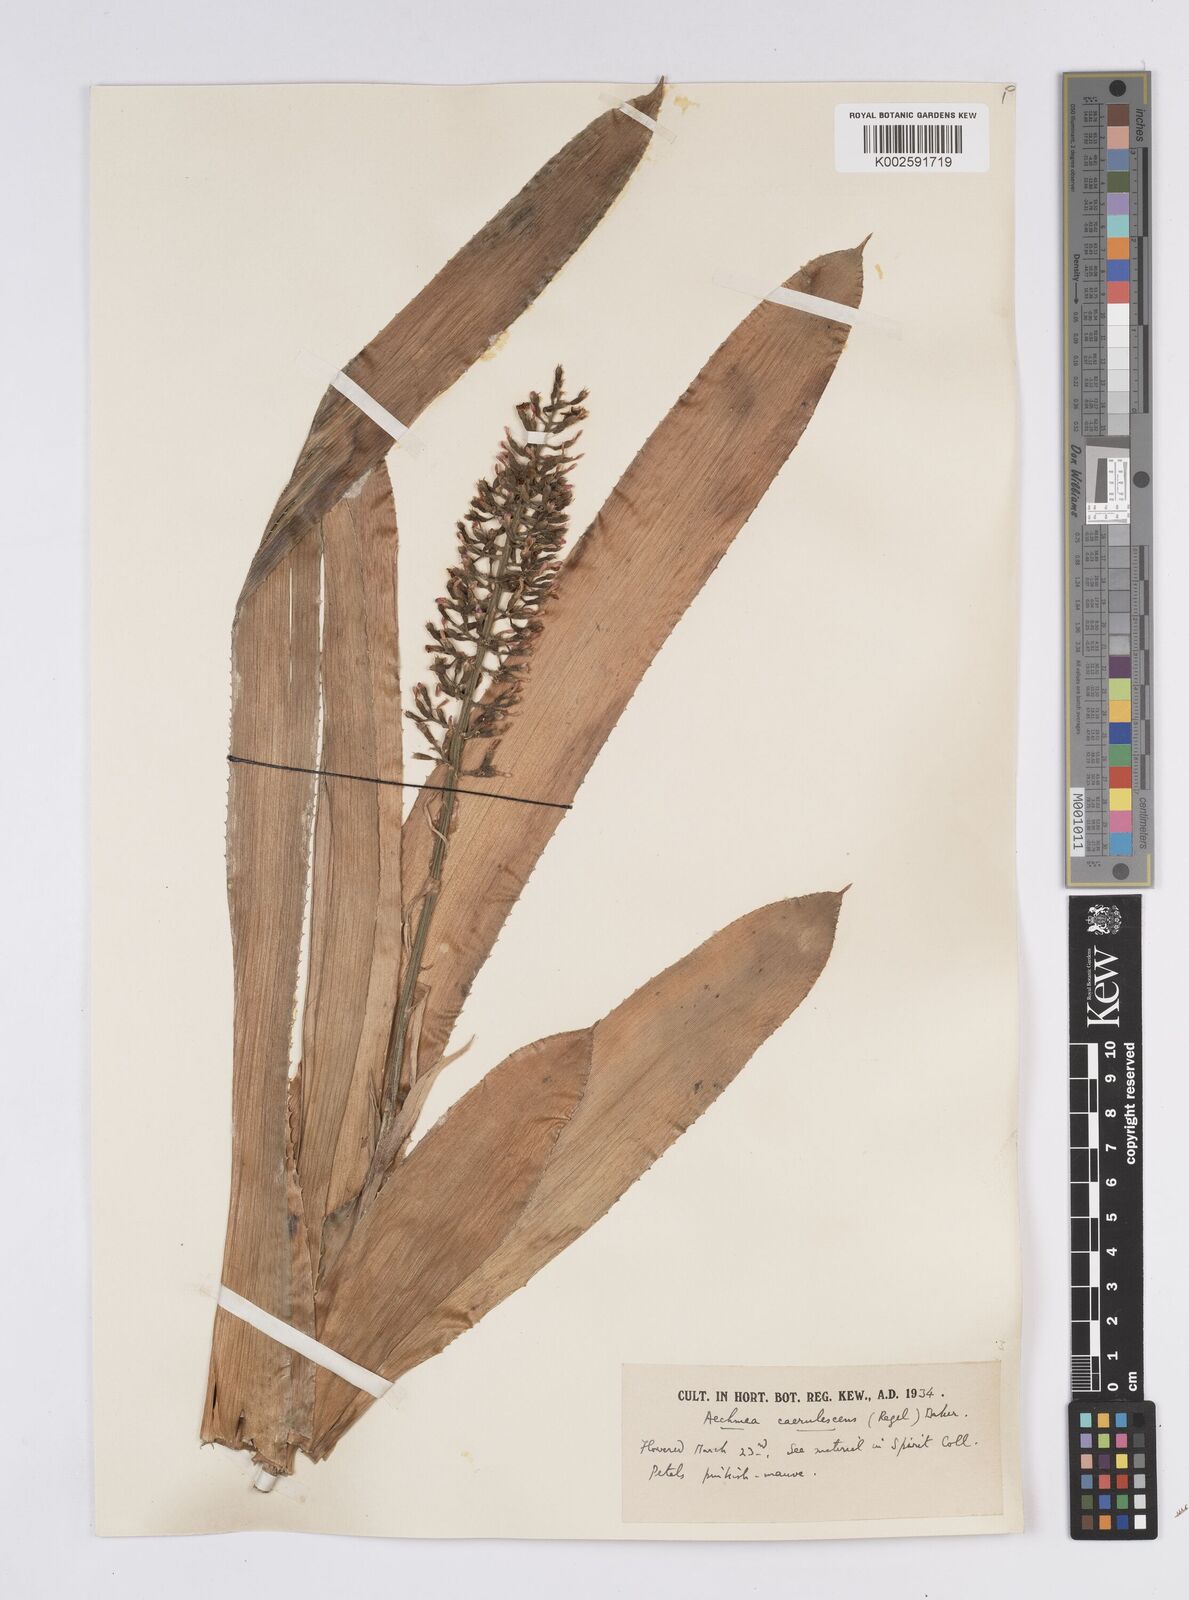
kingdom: Plantae
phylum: Tracheophyta
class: Liliopsida
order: Poales
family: Bromeliaceae
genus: Aechmea
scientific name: Aechmea lueddemanniana
